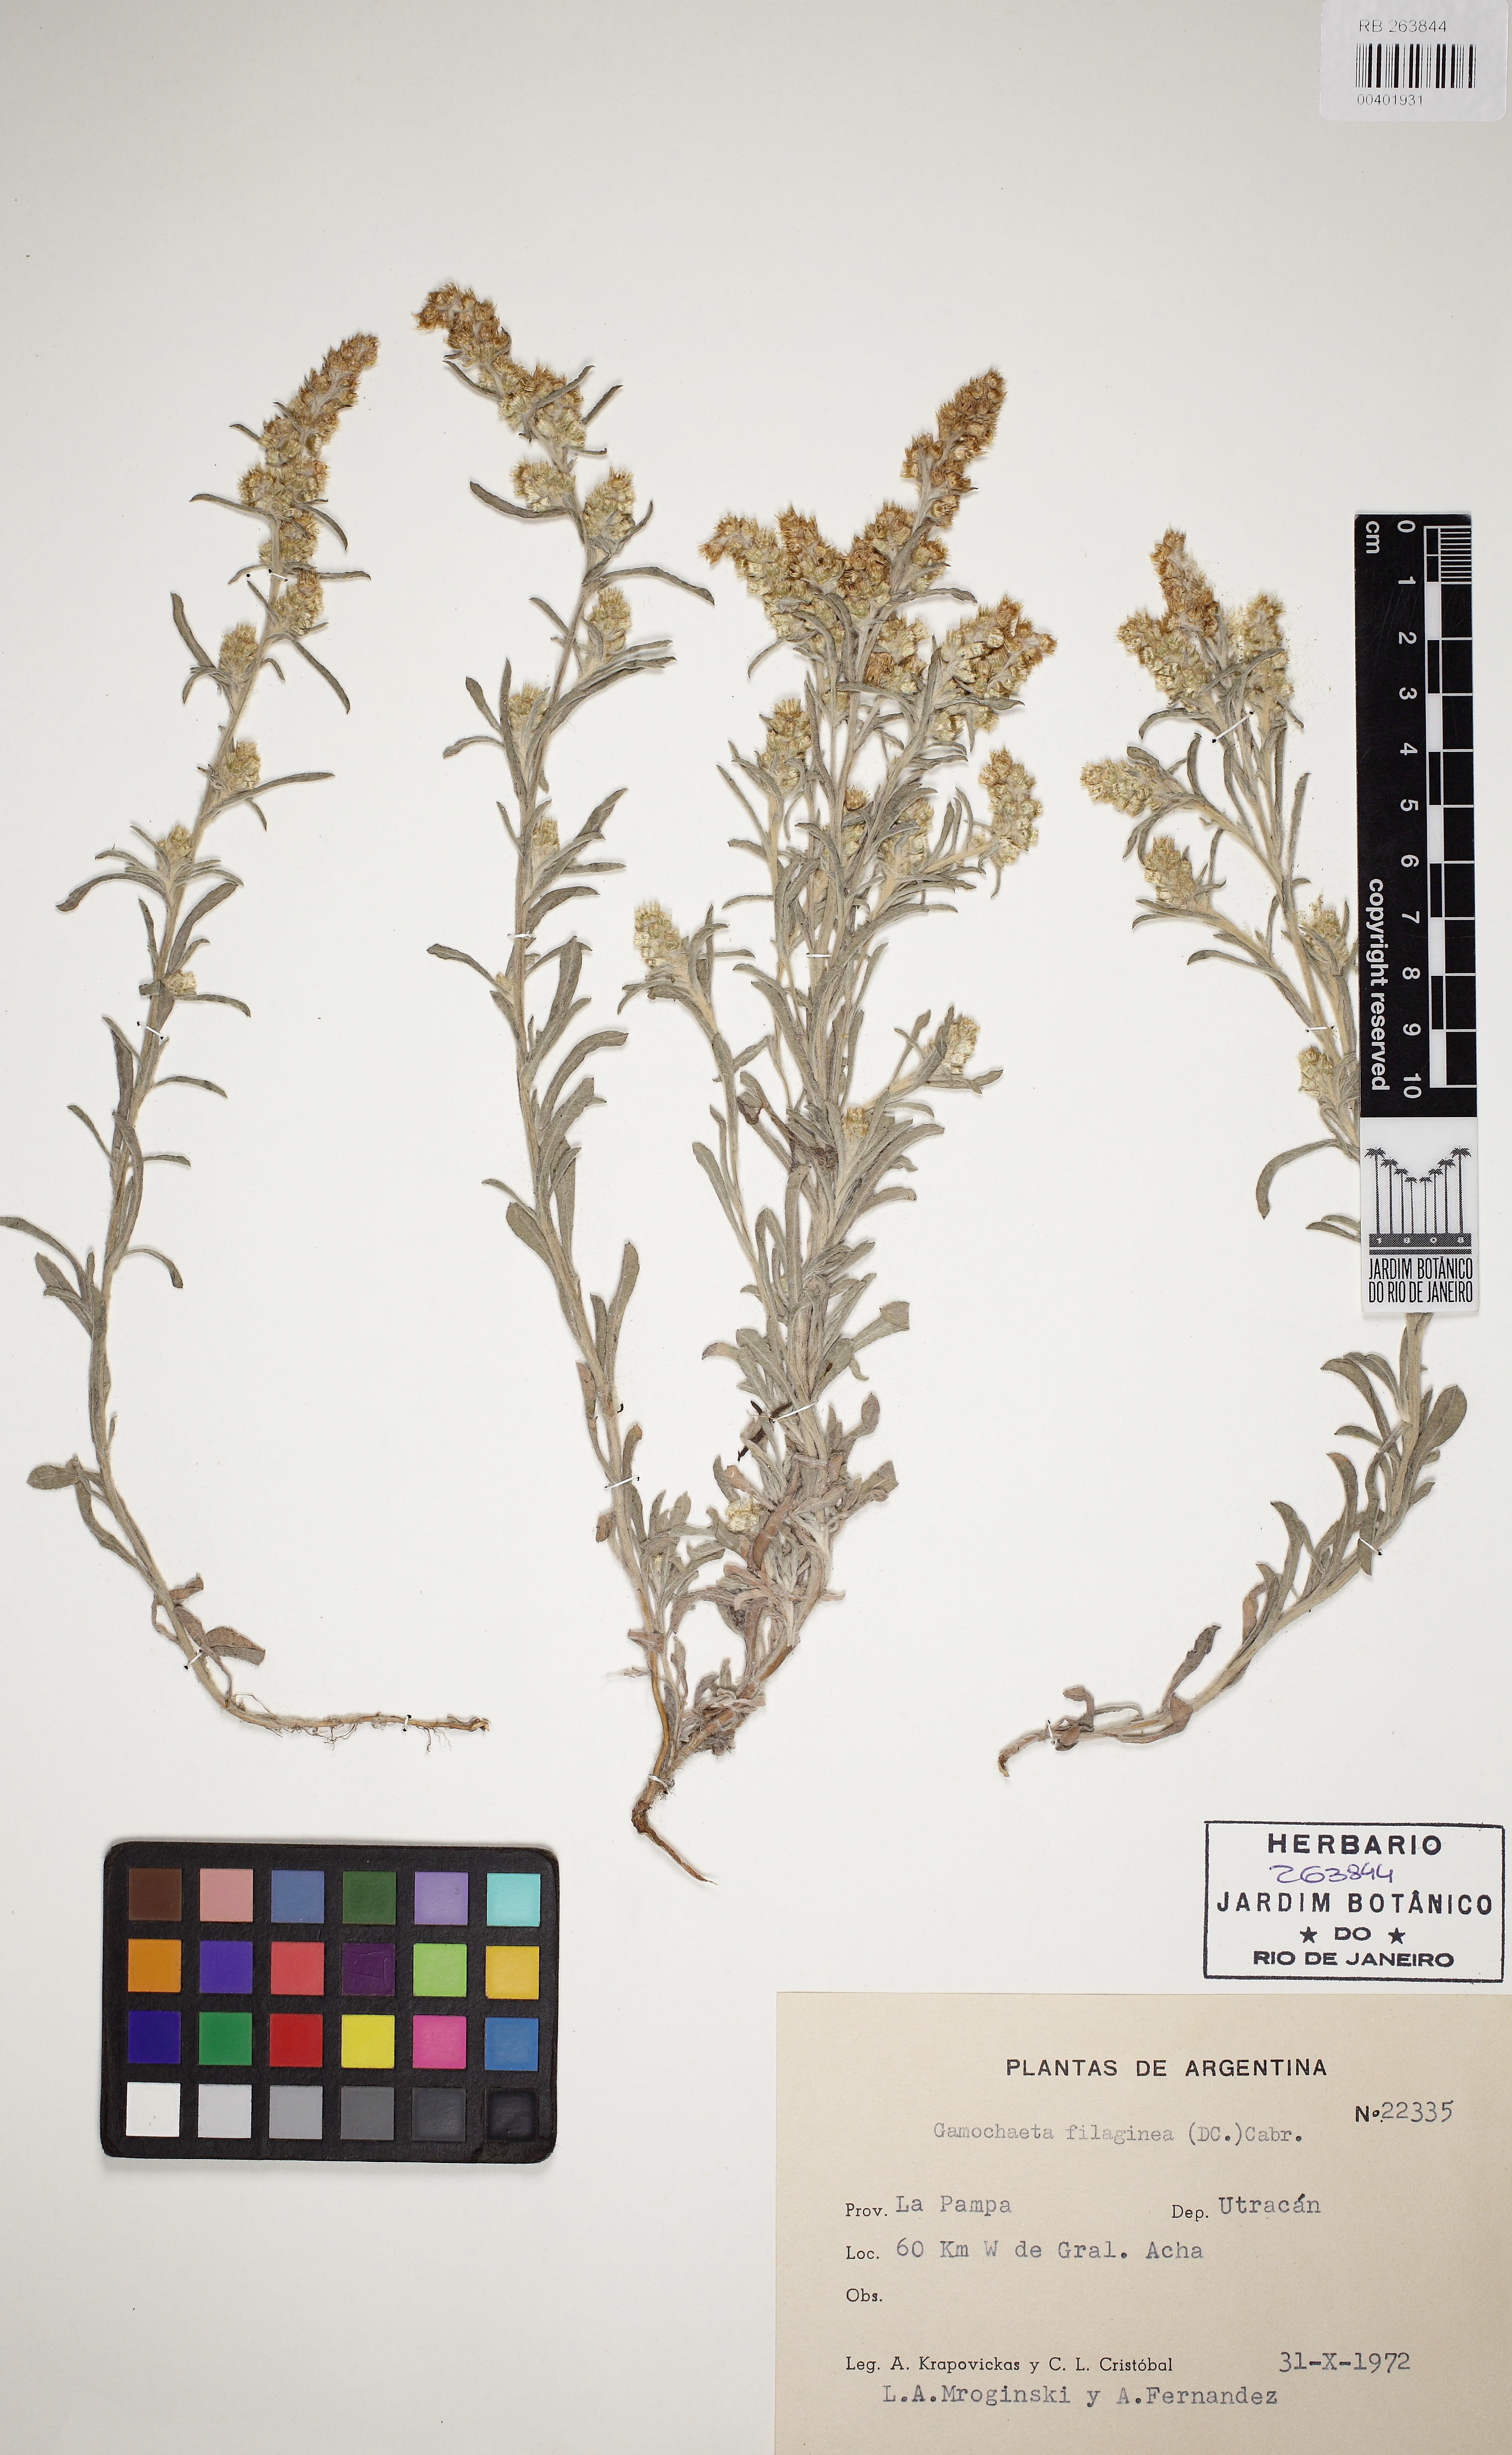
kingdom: Plantae
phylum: Tracheophyta
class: Magnoliopsida
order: Asterales
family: Asteraceae
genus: Gamochaeta
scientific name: Gamochaeta filaginea
